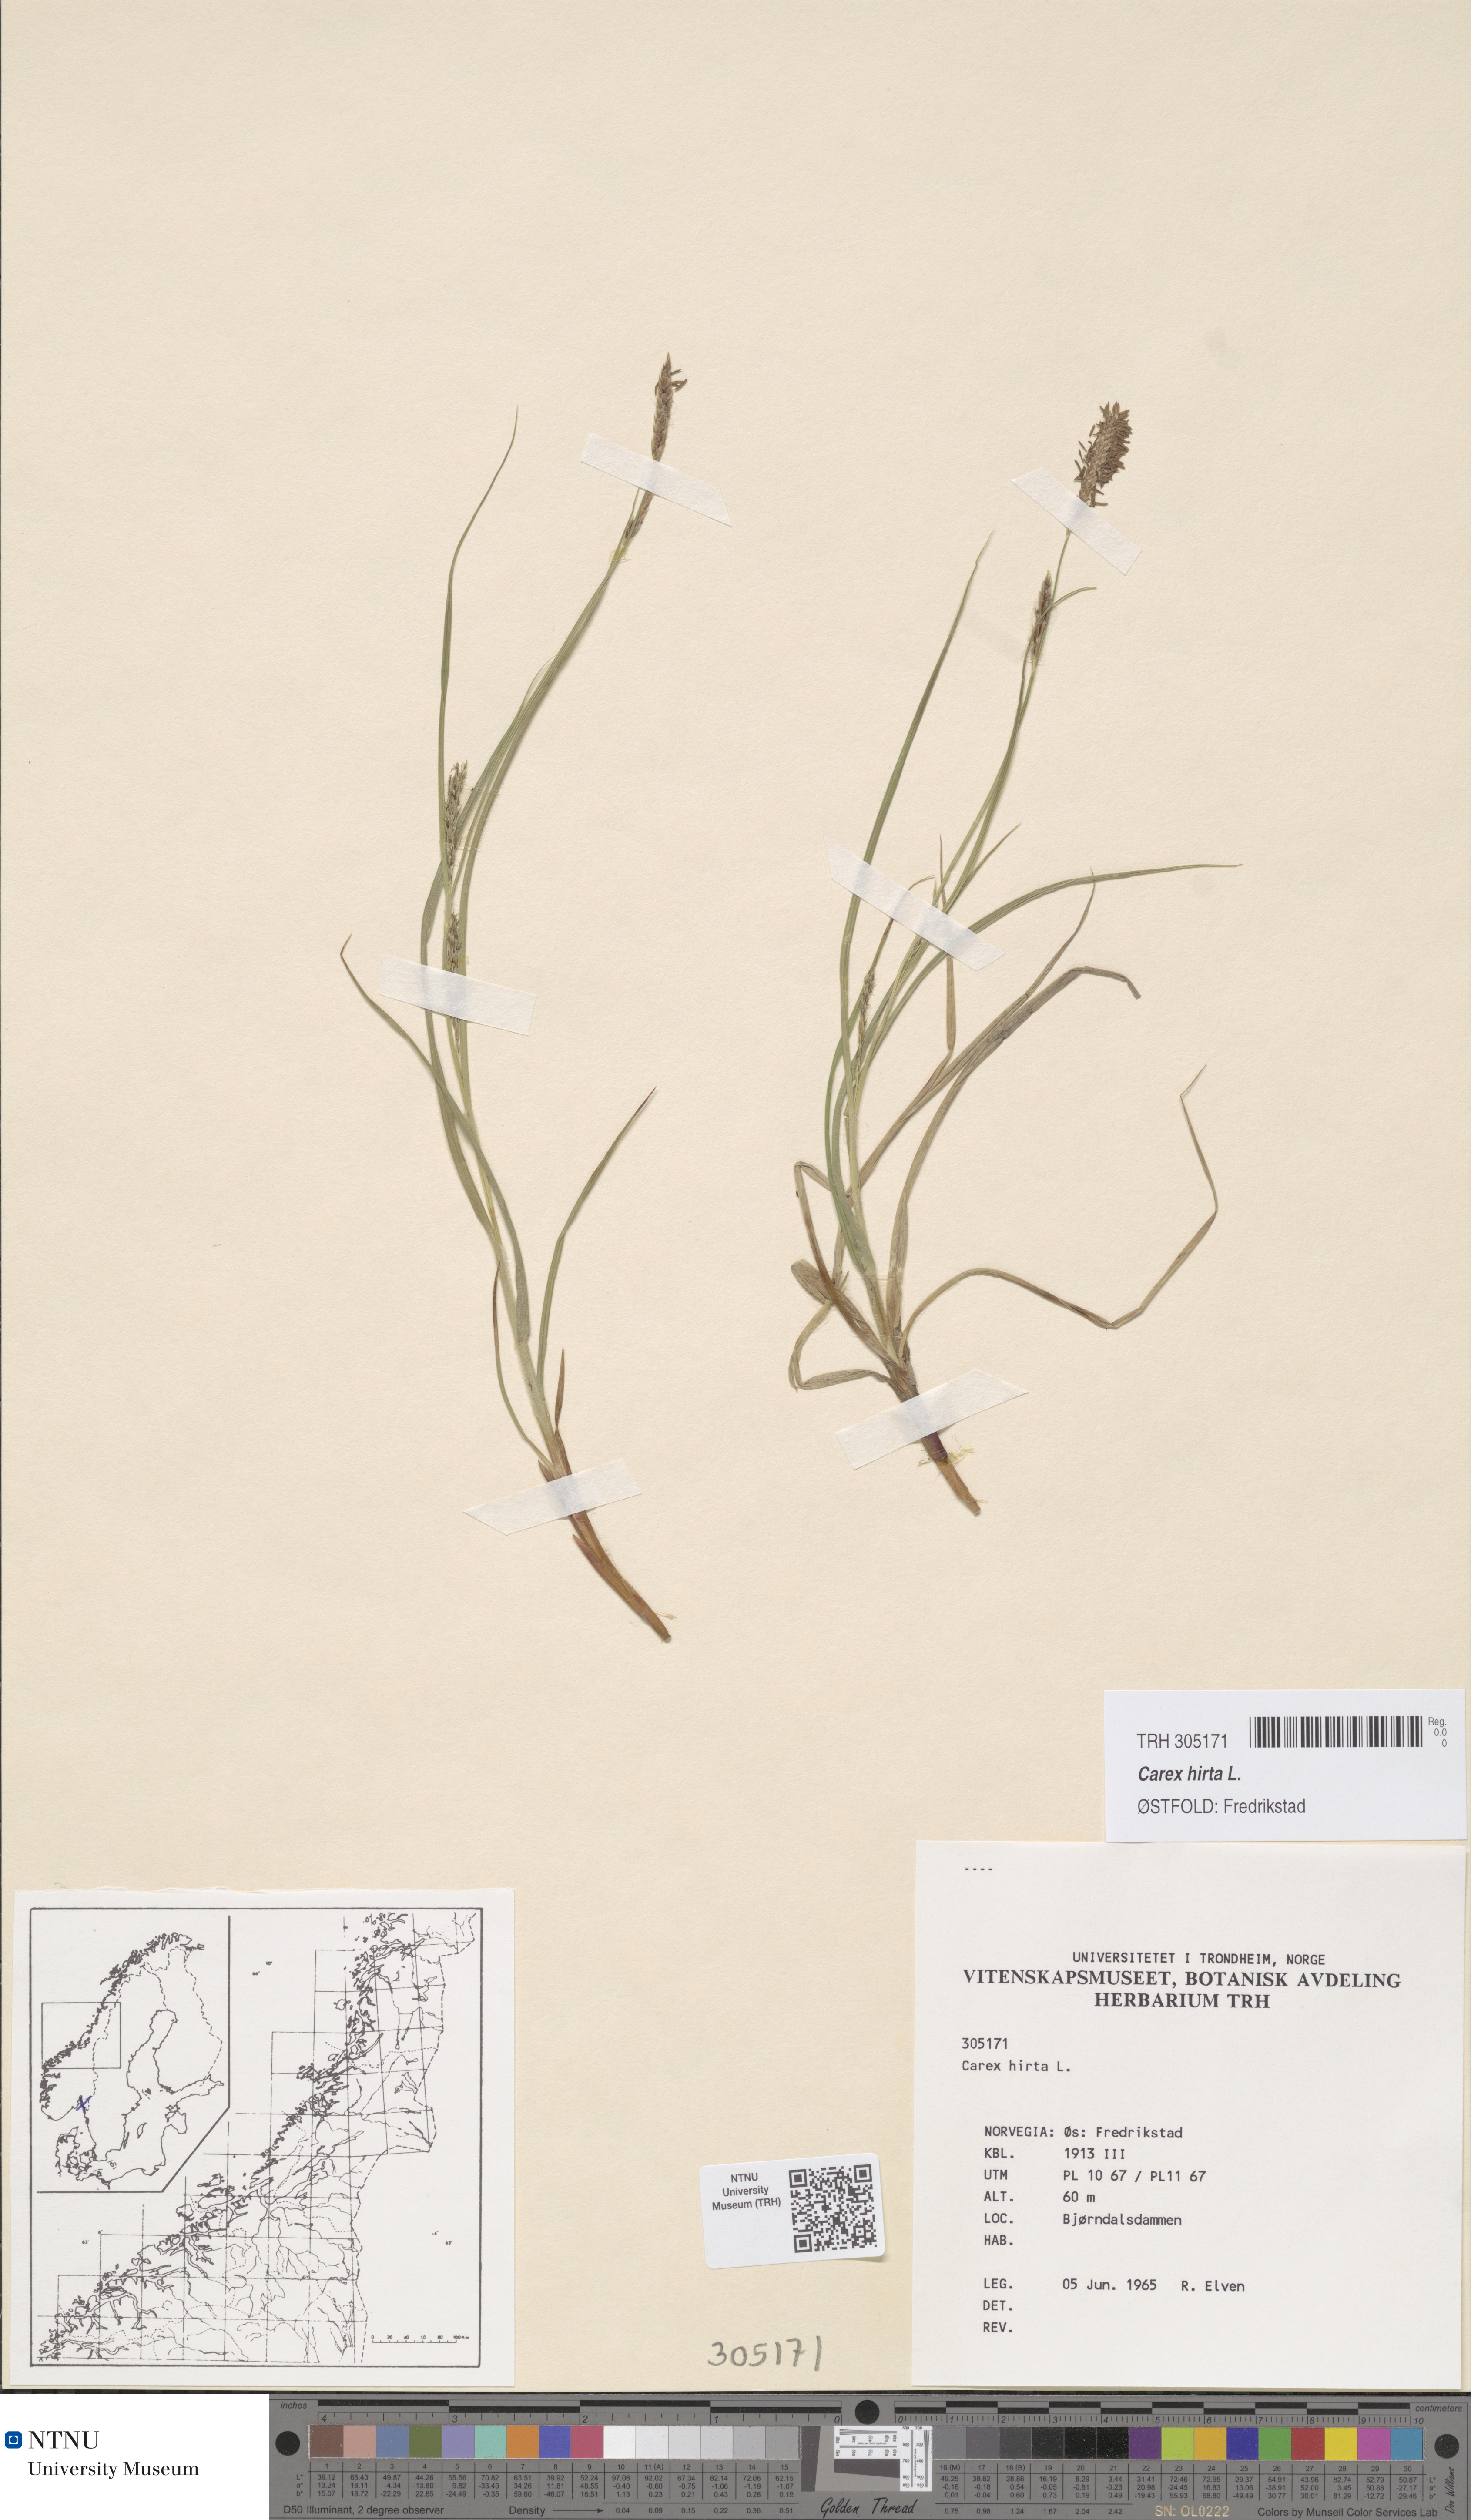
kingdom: Plantae
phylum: Tracheophyta
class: Liliopsida
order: Poales
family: Cyperaceae
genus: Carex
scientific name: Carex hirta
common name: Hairy sedge
